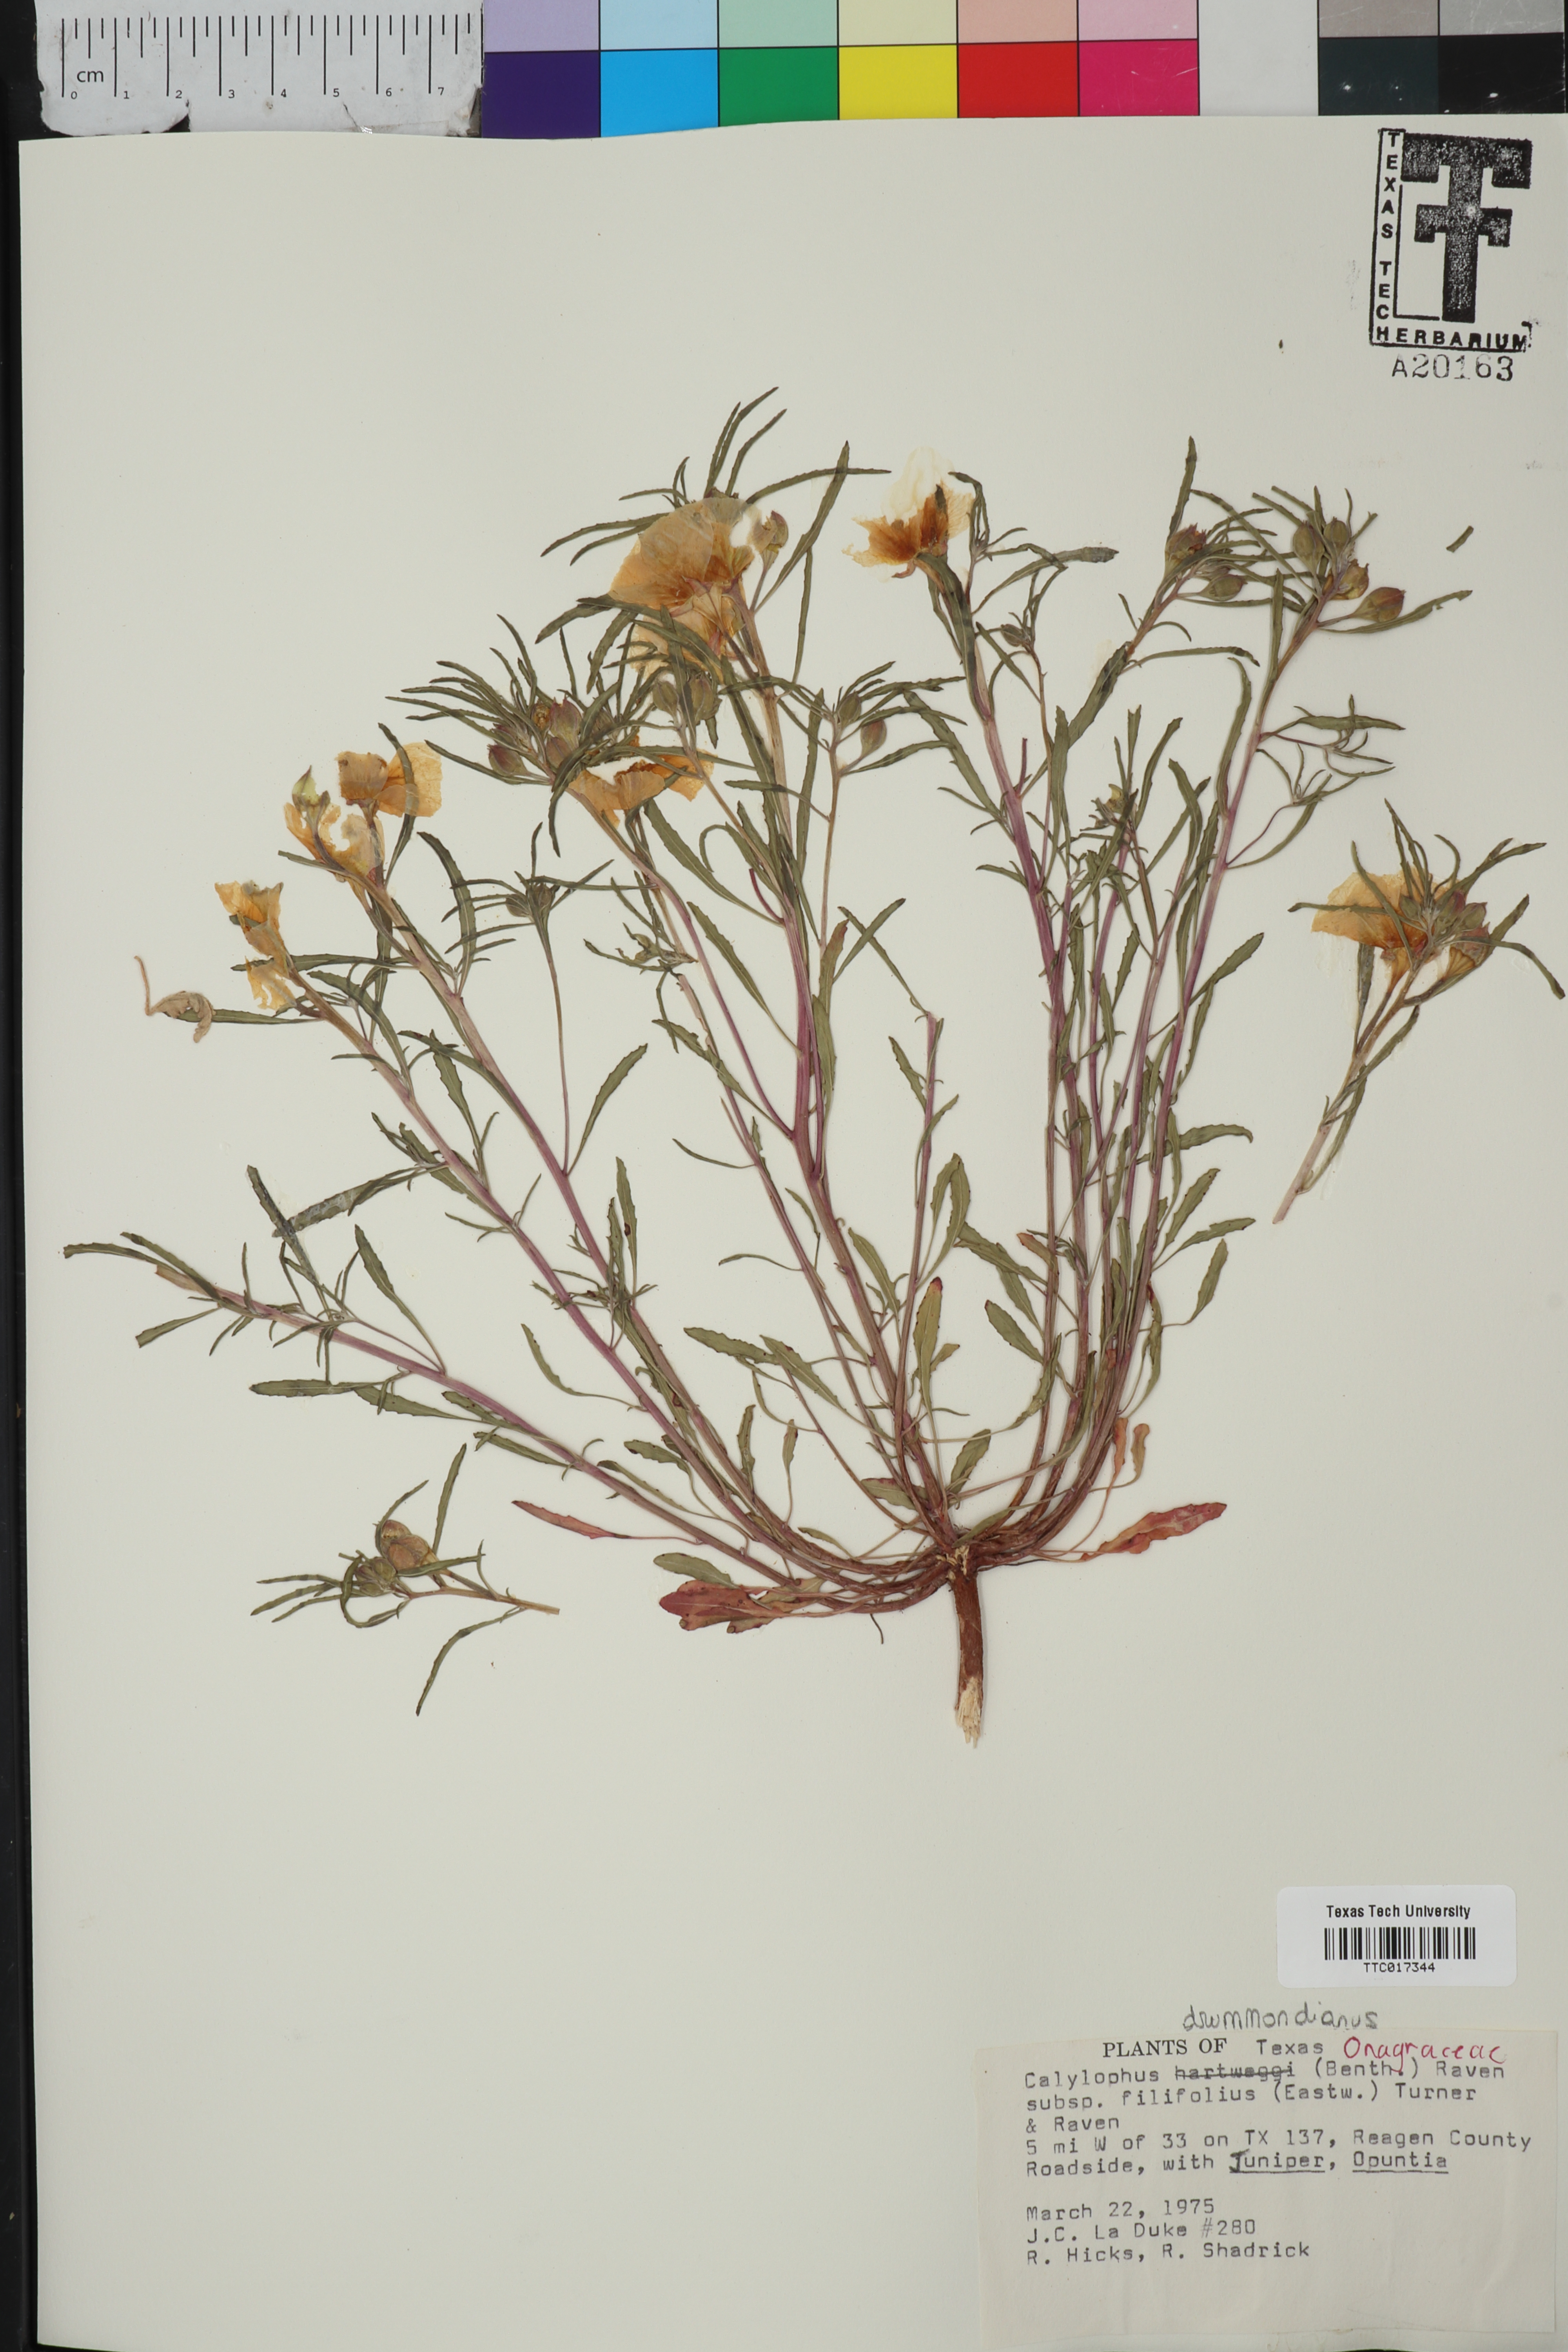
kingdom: Plantae
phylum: Tracheophyta
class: Magnoliopsida
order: Myrtales
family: Onagraceae
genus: Oenothera
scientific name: Oenothera hartwegii
